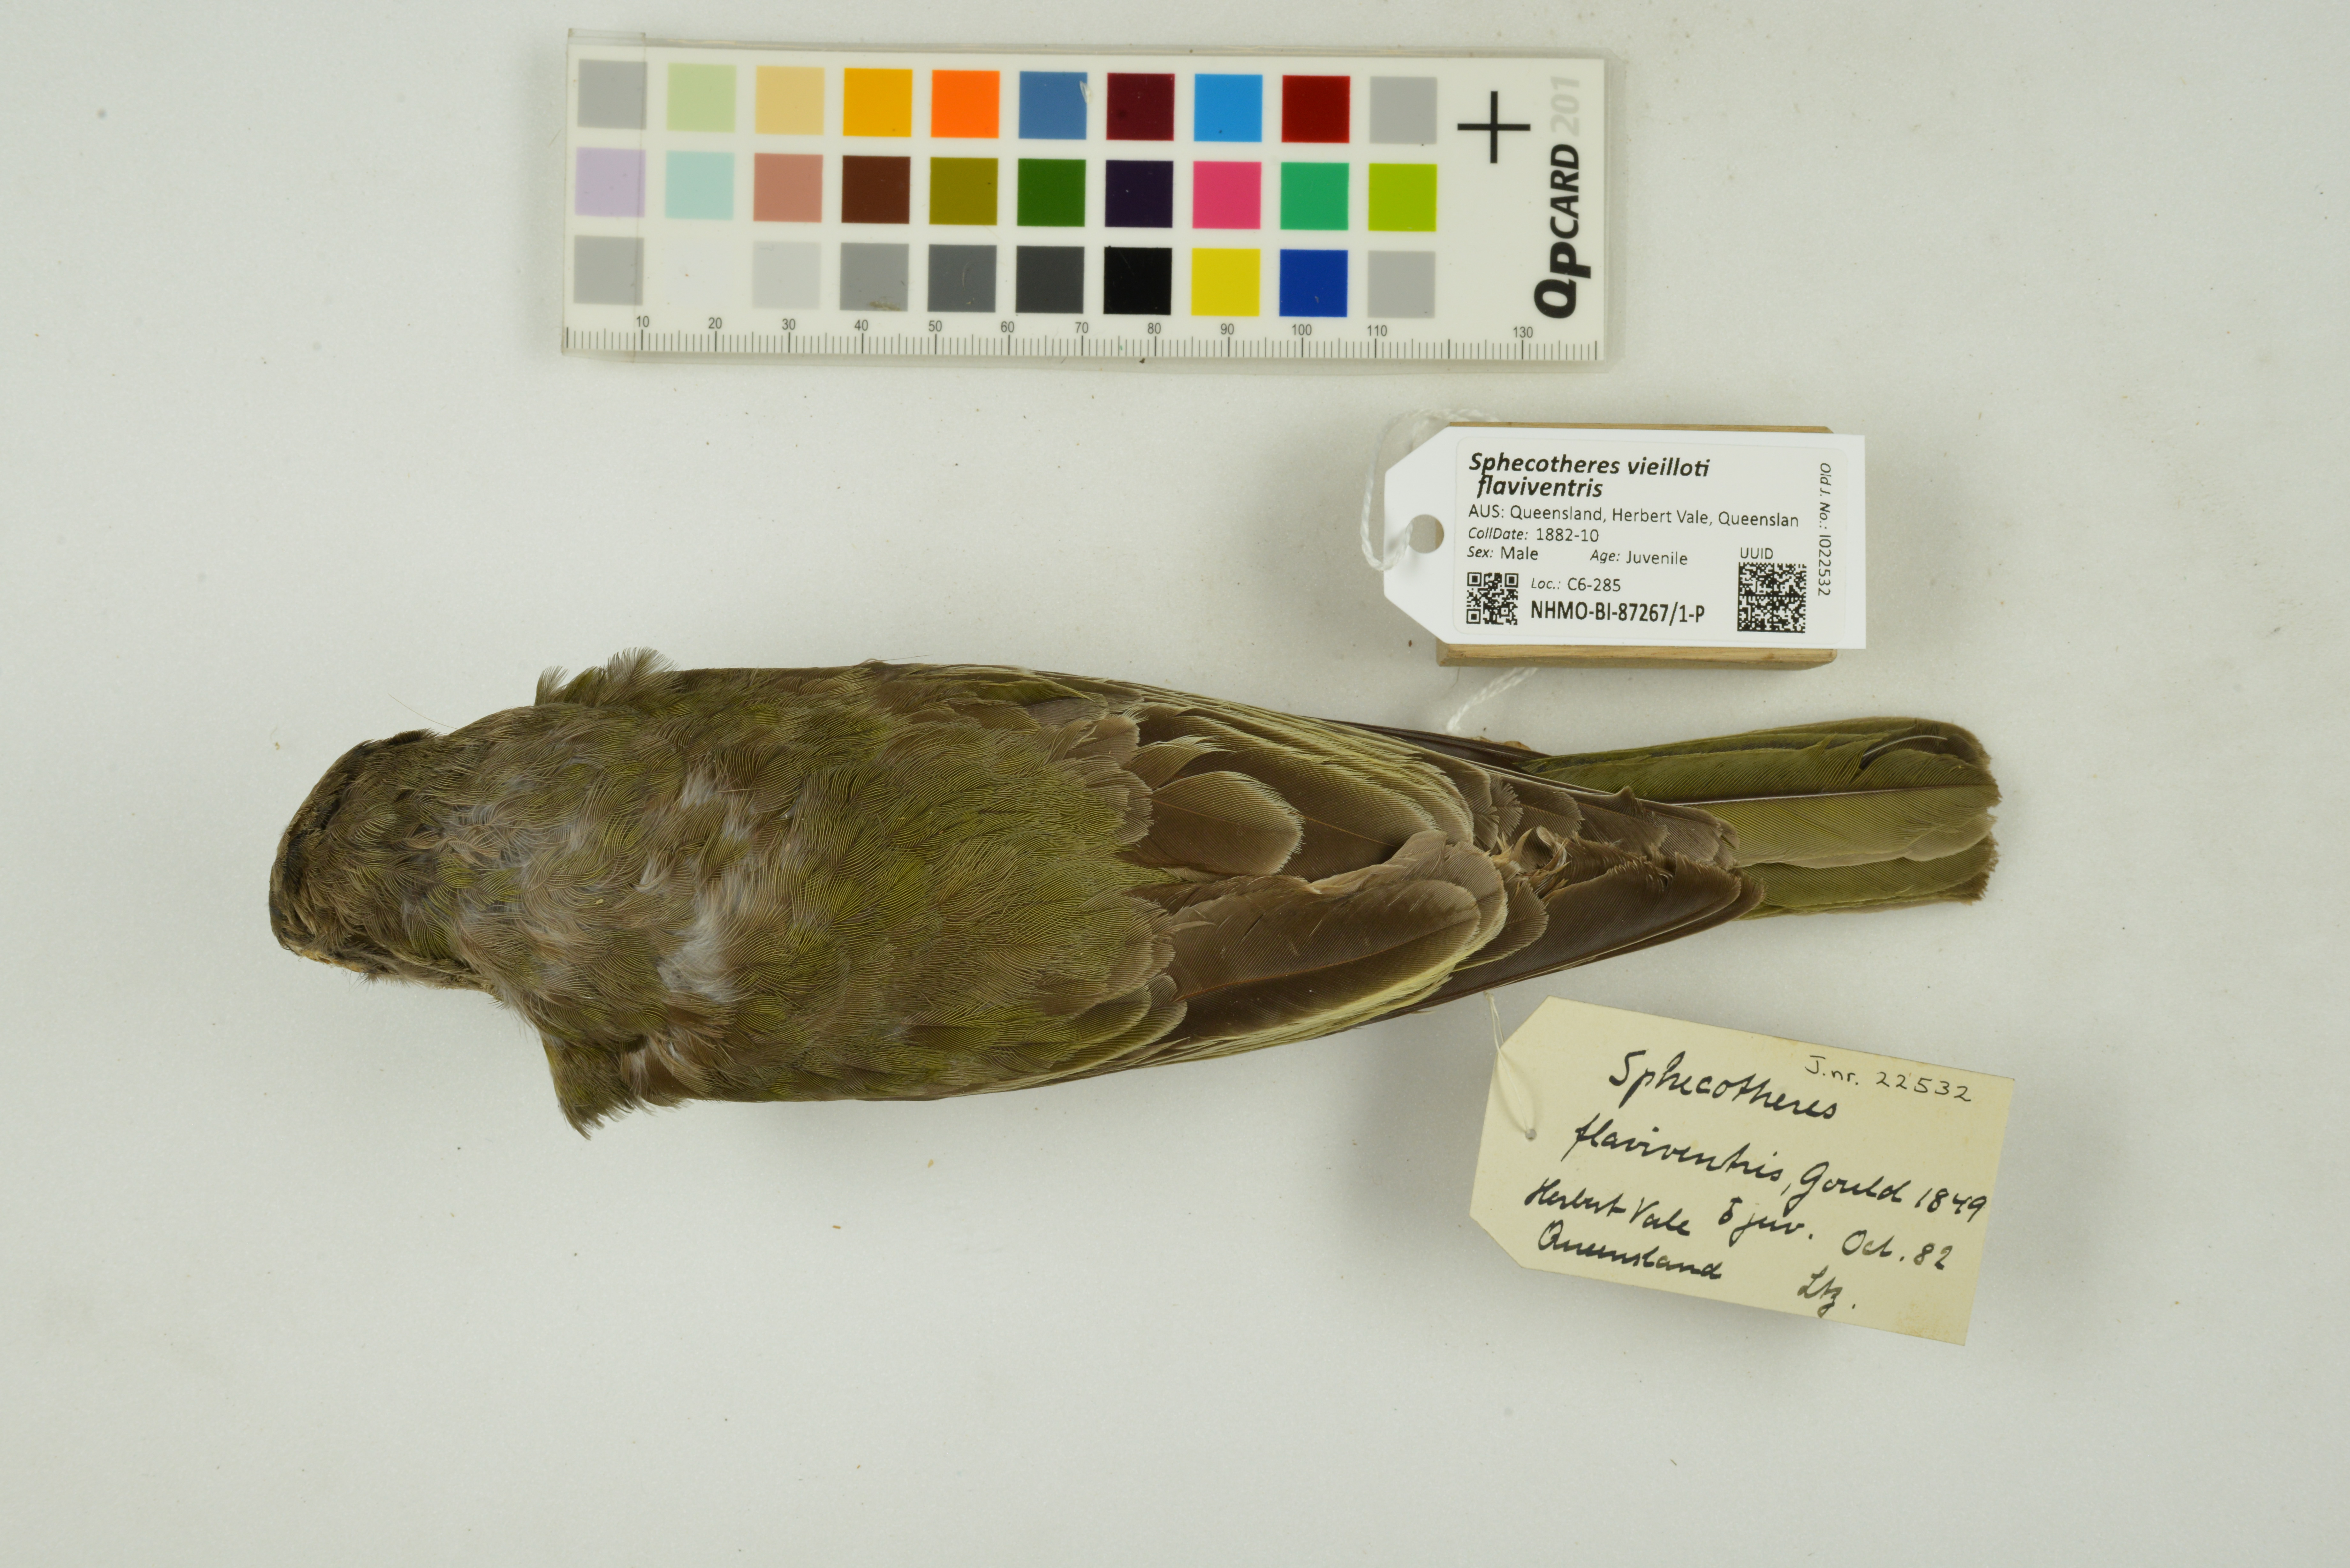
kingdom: Animalia
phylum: Chordata
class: Aves
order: Passeriformes
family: Oriolidae
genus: Sphecotheres
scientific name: Sphecotheres vieilloti
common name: Australasian figbird
